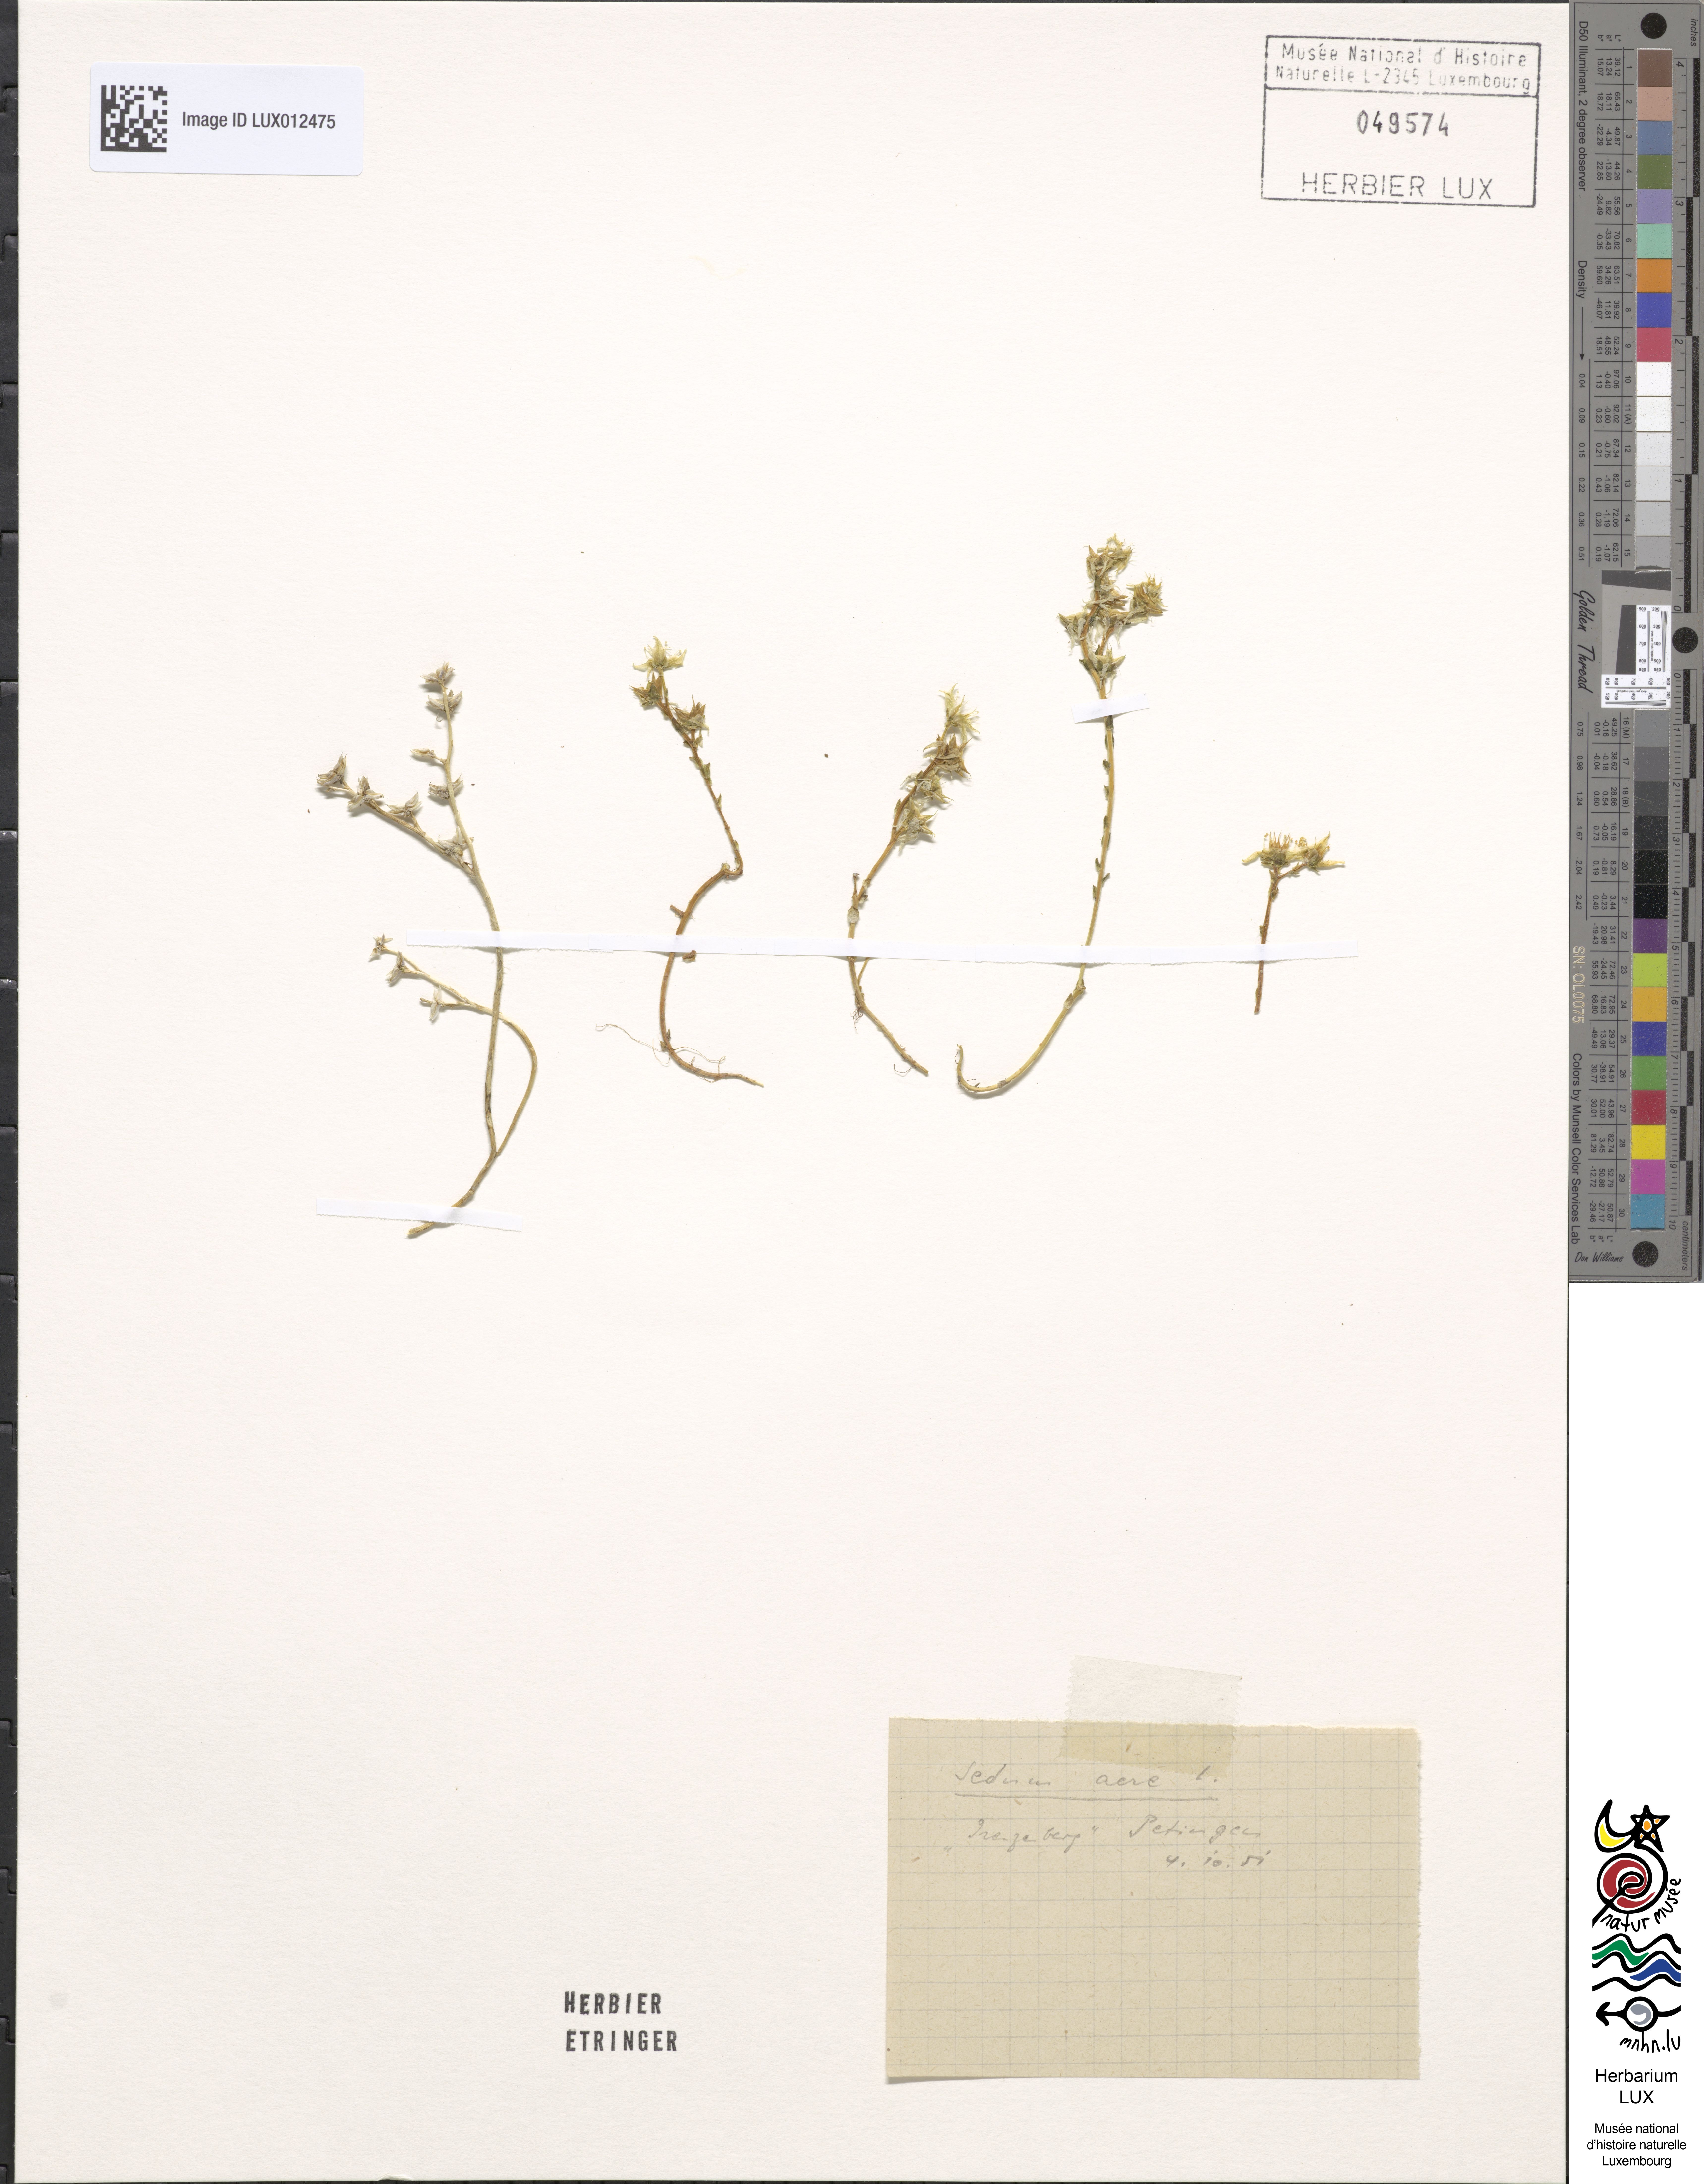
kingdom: Plantae
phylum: Tracheophyta
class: Magnoliopsida
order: Saxifragales
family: Crassulaceae
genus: Sedum
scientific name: Sedum acre
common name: Biting stonecrop
